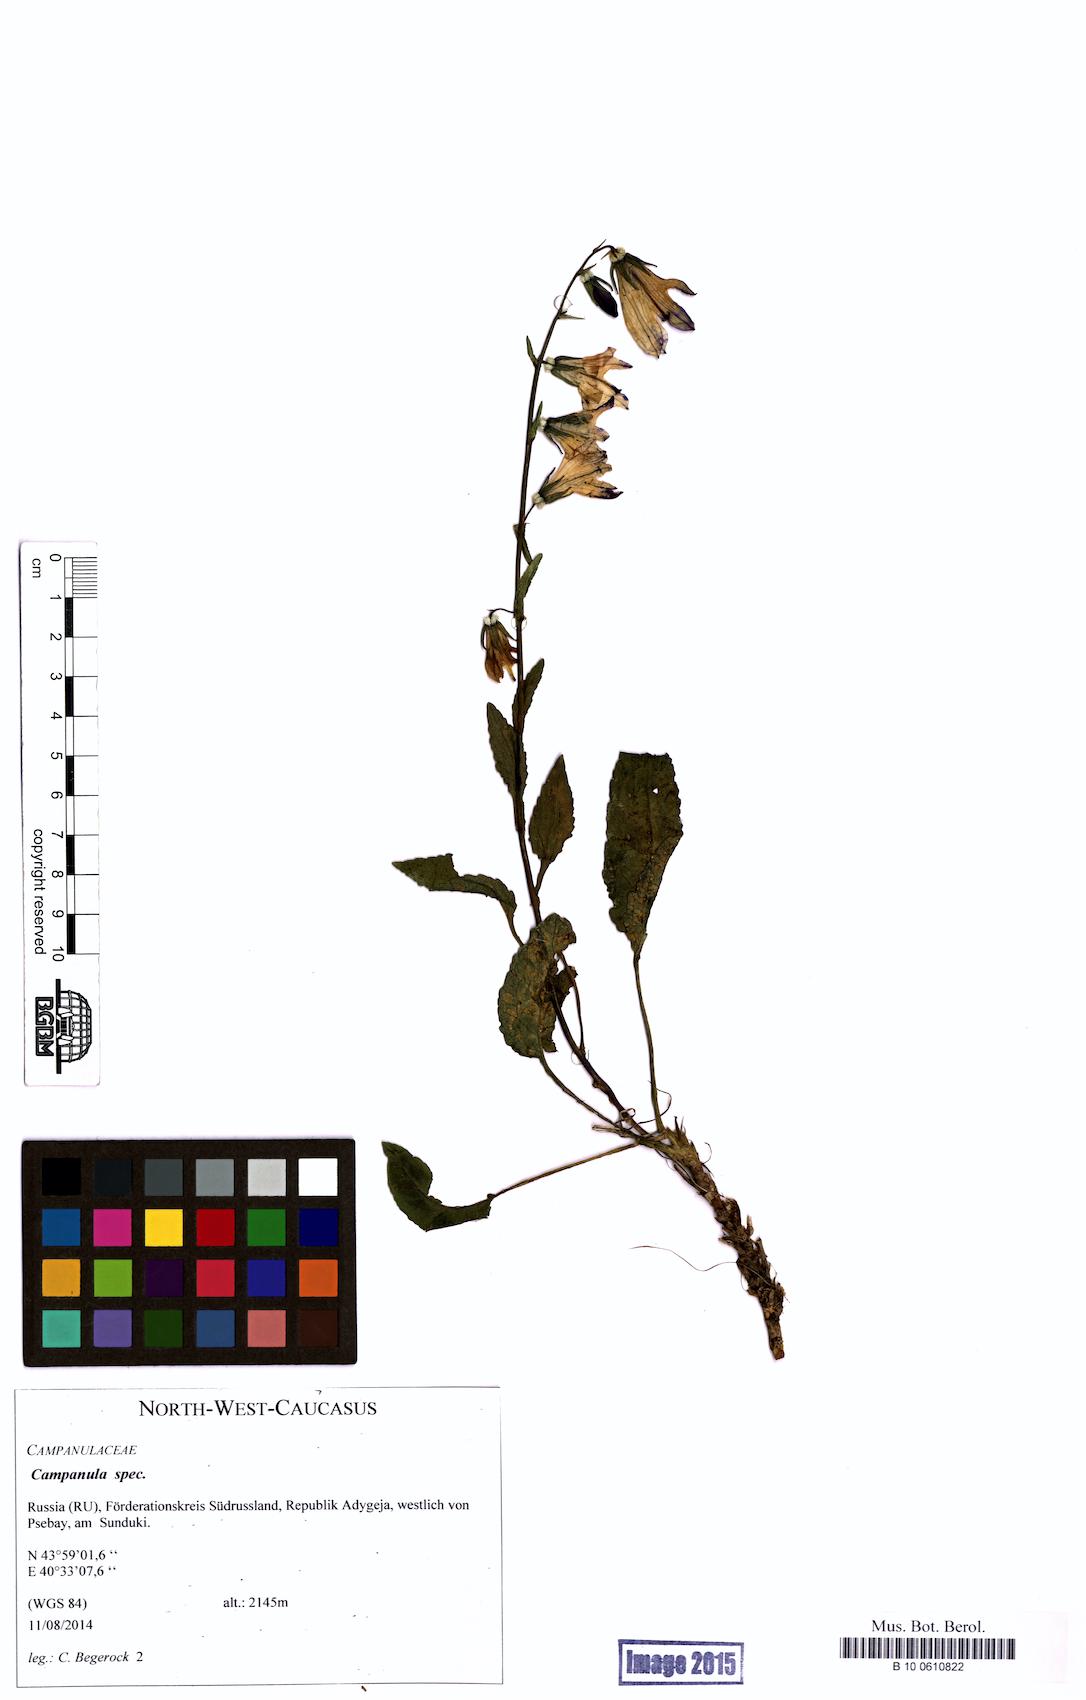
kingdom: Plantae
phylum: Tracheophyta
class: Magnoliopsida
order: Asterales
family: Campanulaceae
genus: Campanula
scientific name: Campanula
